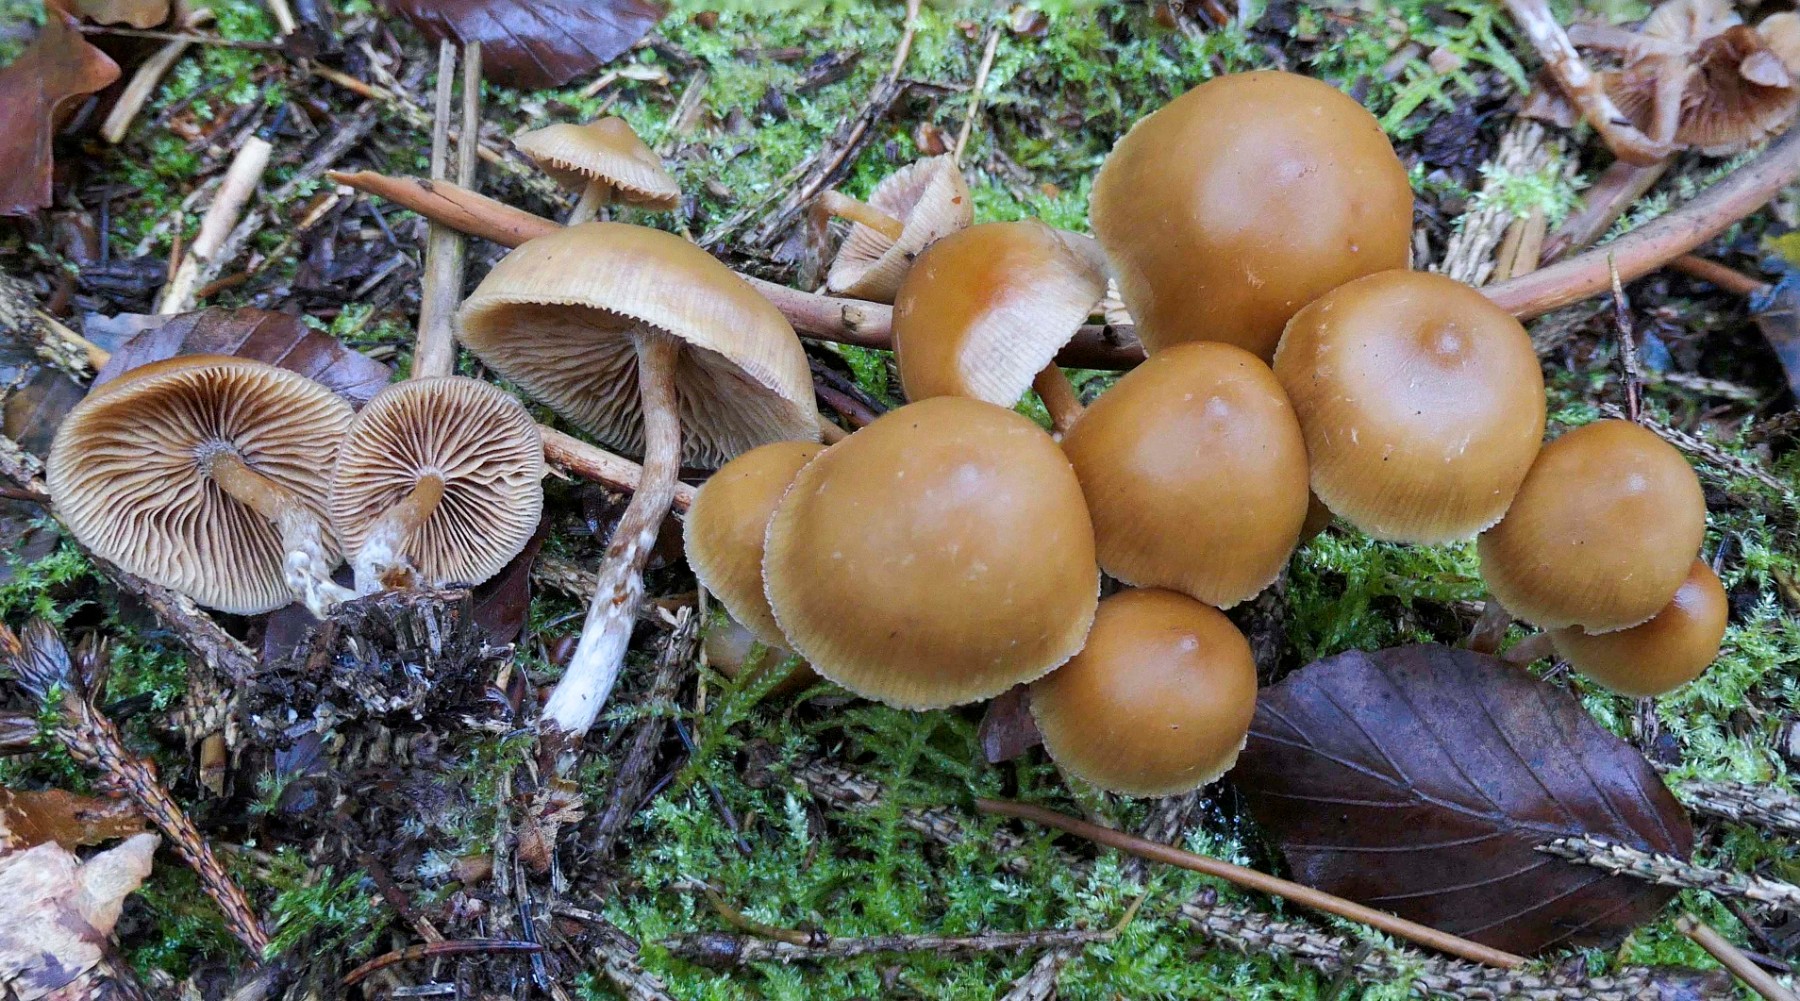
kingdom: Fungi
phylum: Basidiomycota
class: Agaricomycetes
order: Agaricales
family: Hymenogastraceae
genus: Galerina
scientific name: Galerina sideroides
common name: træflis-hjelmhat
